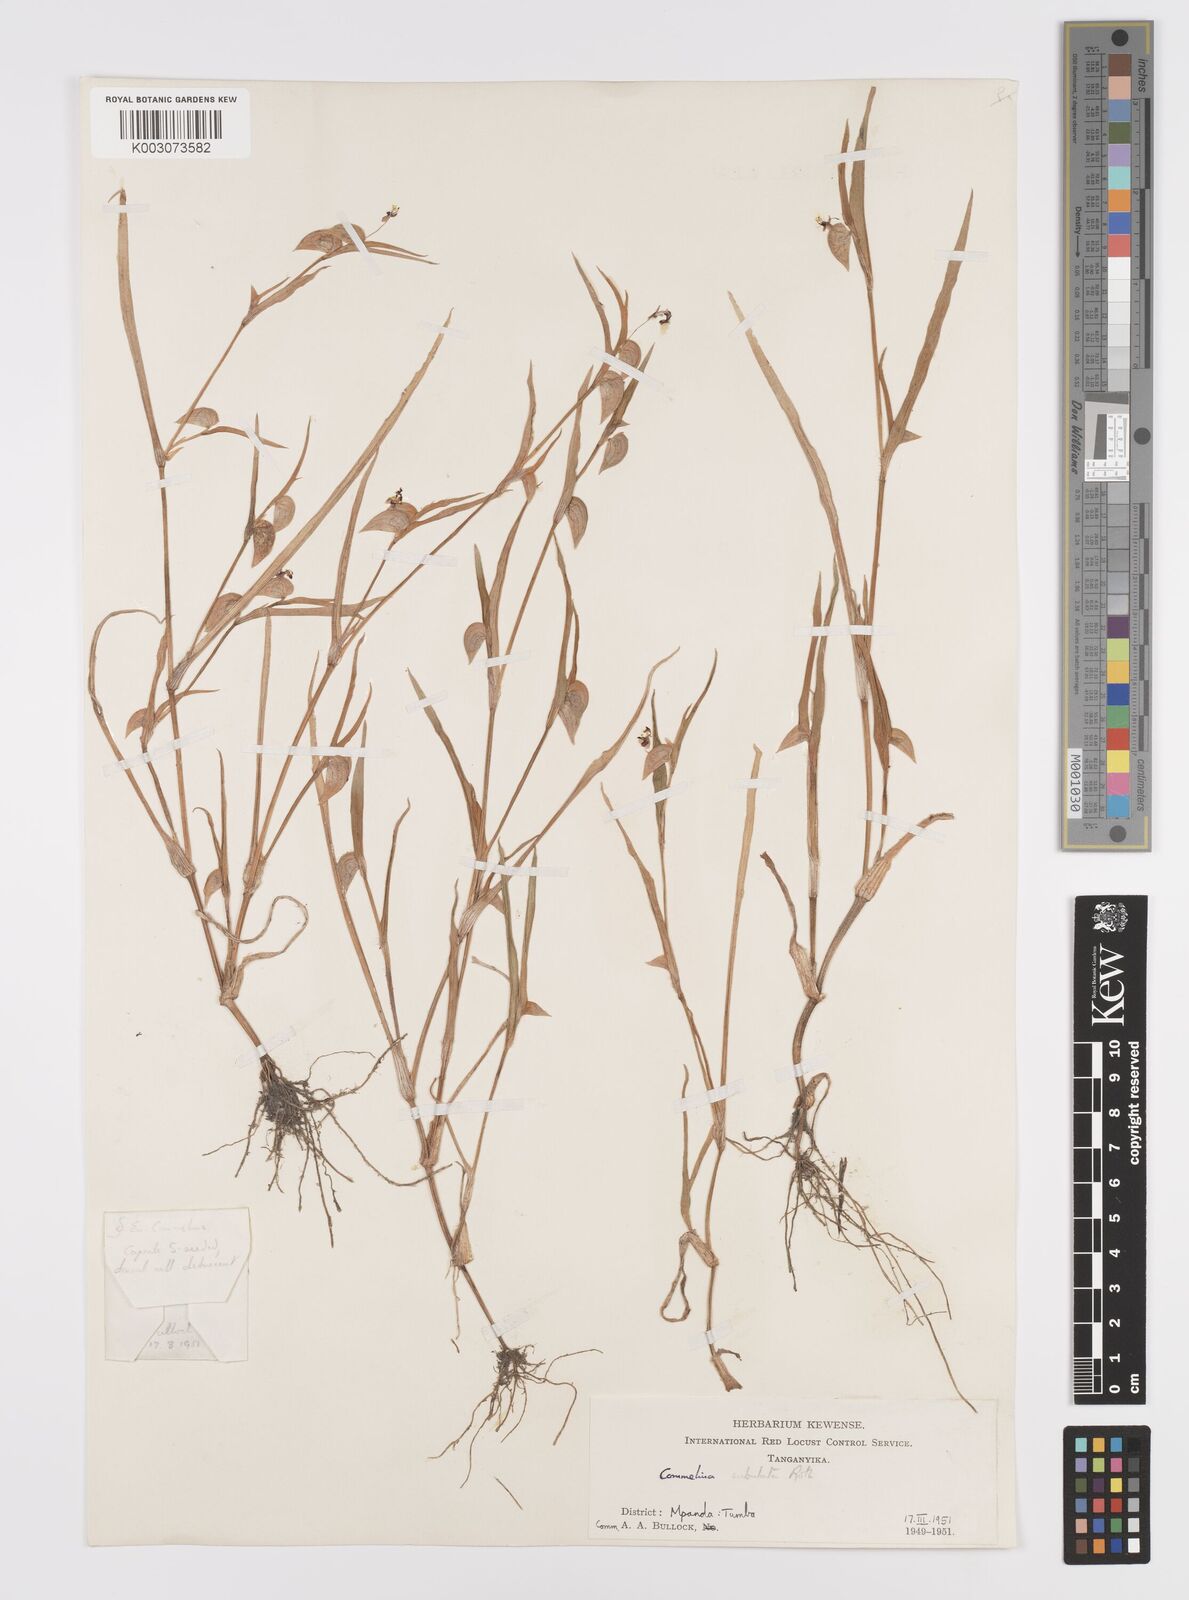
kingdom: Plantae
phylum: Tracheophyta
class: Liliopsida
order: Commelinales
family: Commelinaceae
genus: Commelina
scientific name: Commelina subulata
